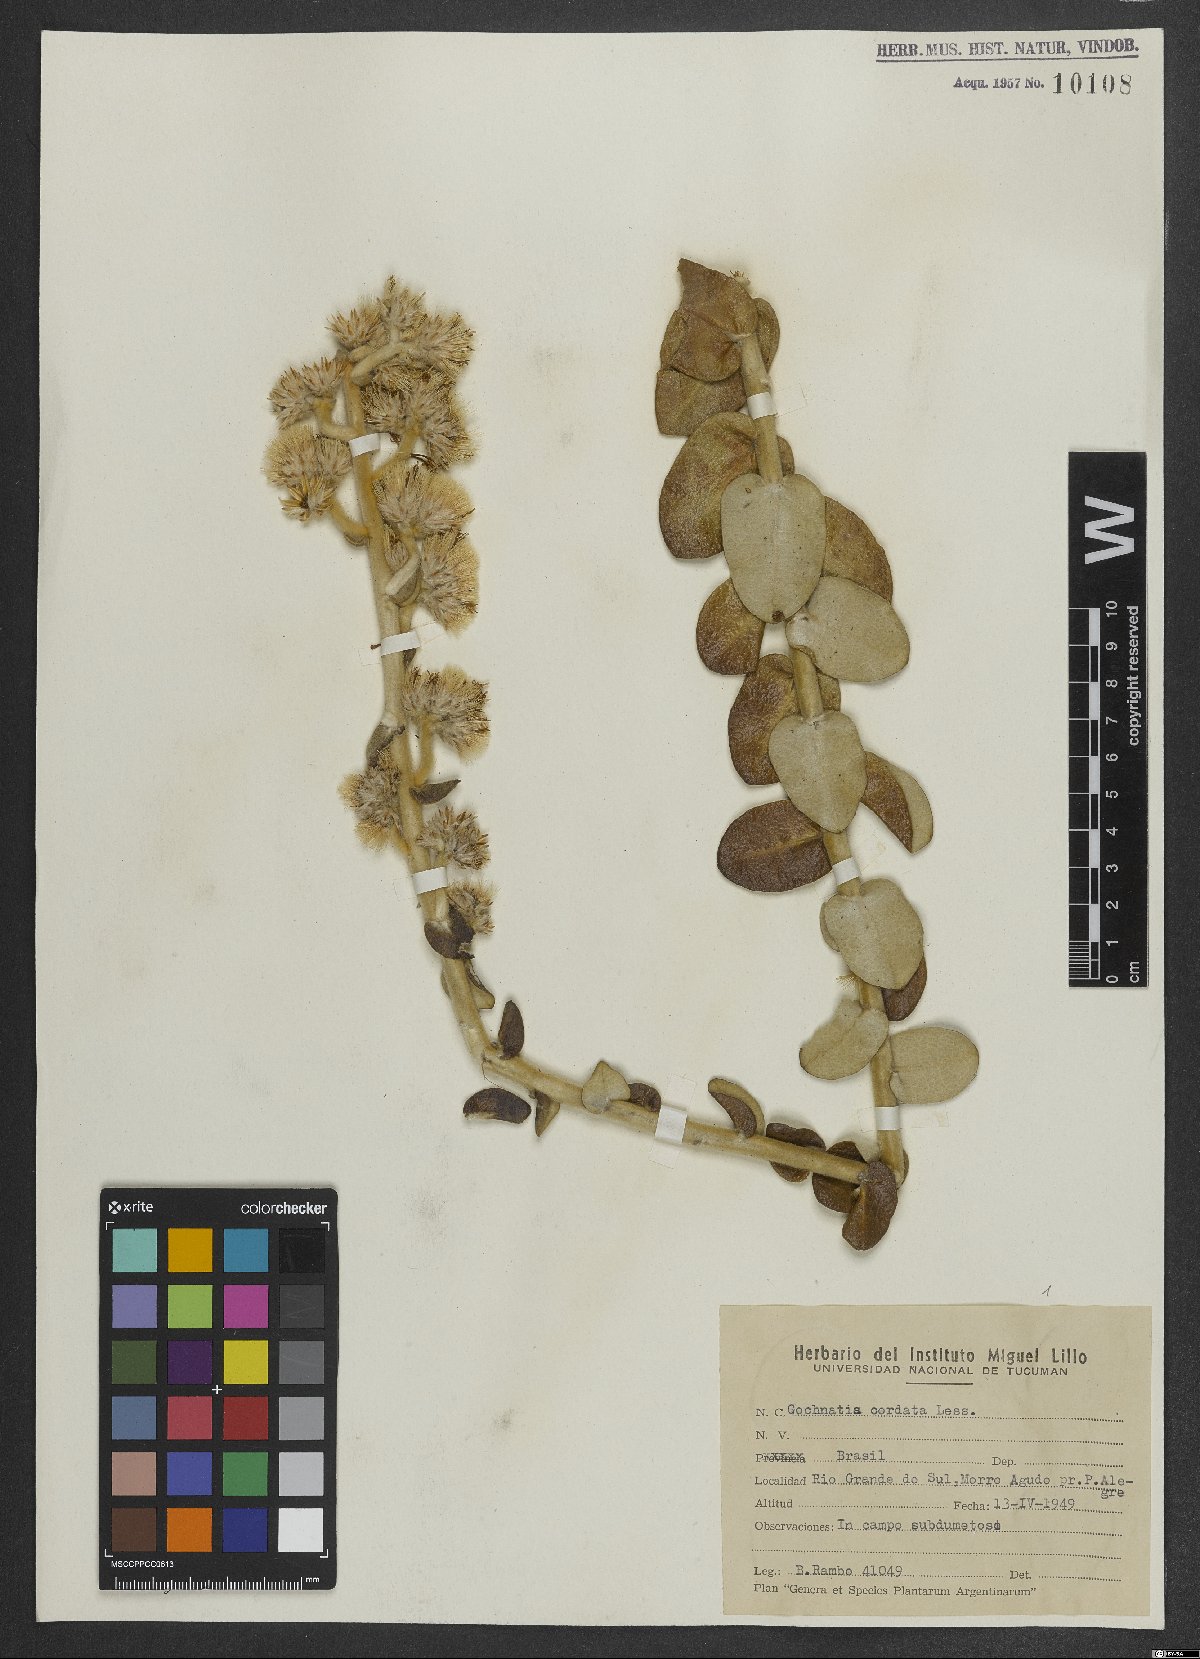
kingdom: Plantae
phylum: Tracheophyta
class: Magnoliopsida
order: Asterales
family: Asteraceae
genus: Moquiniastrum
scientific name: Moquiniastrum cordatum
